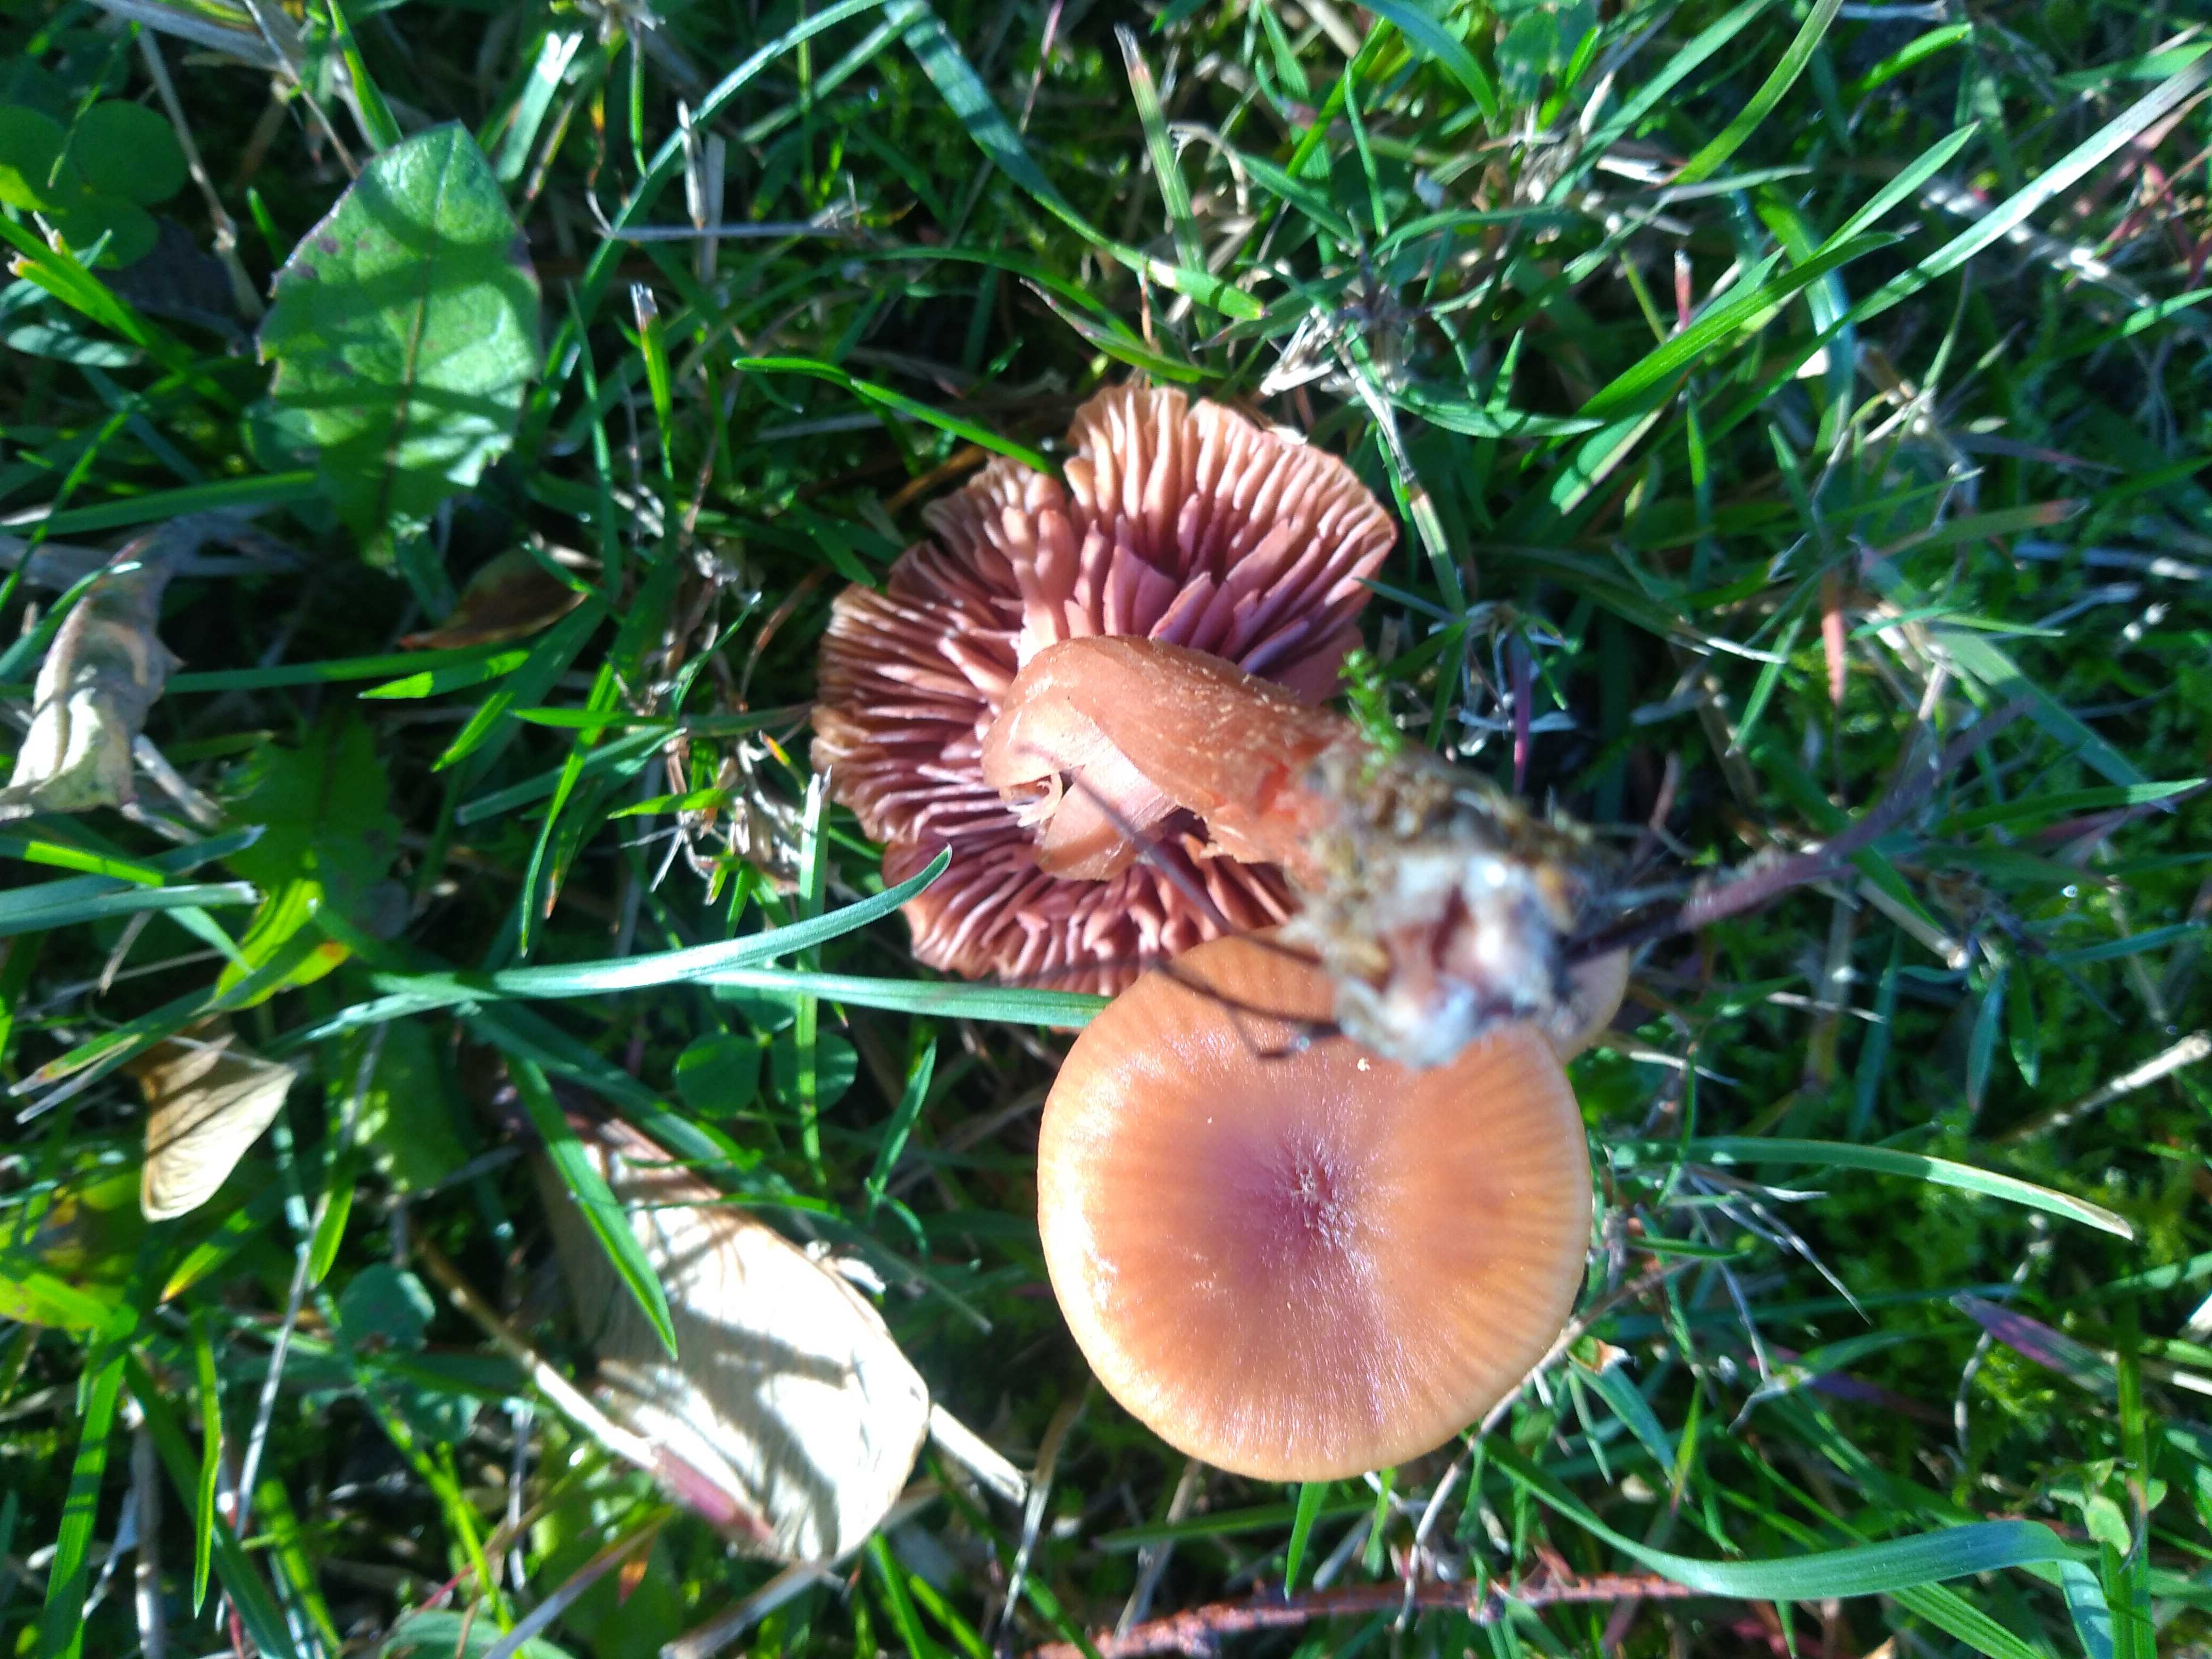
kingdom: Fungi
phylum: Basidiomycota
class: Agaricomycetes
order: Agaricales
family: Hydnangiaceae
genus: Laccaria
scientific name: Laccaria laccata
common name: rød ametysthat
